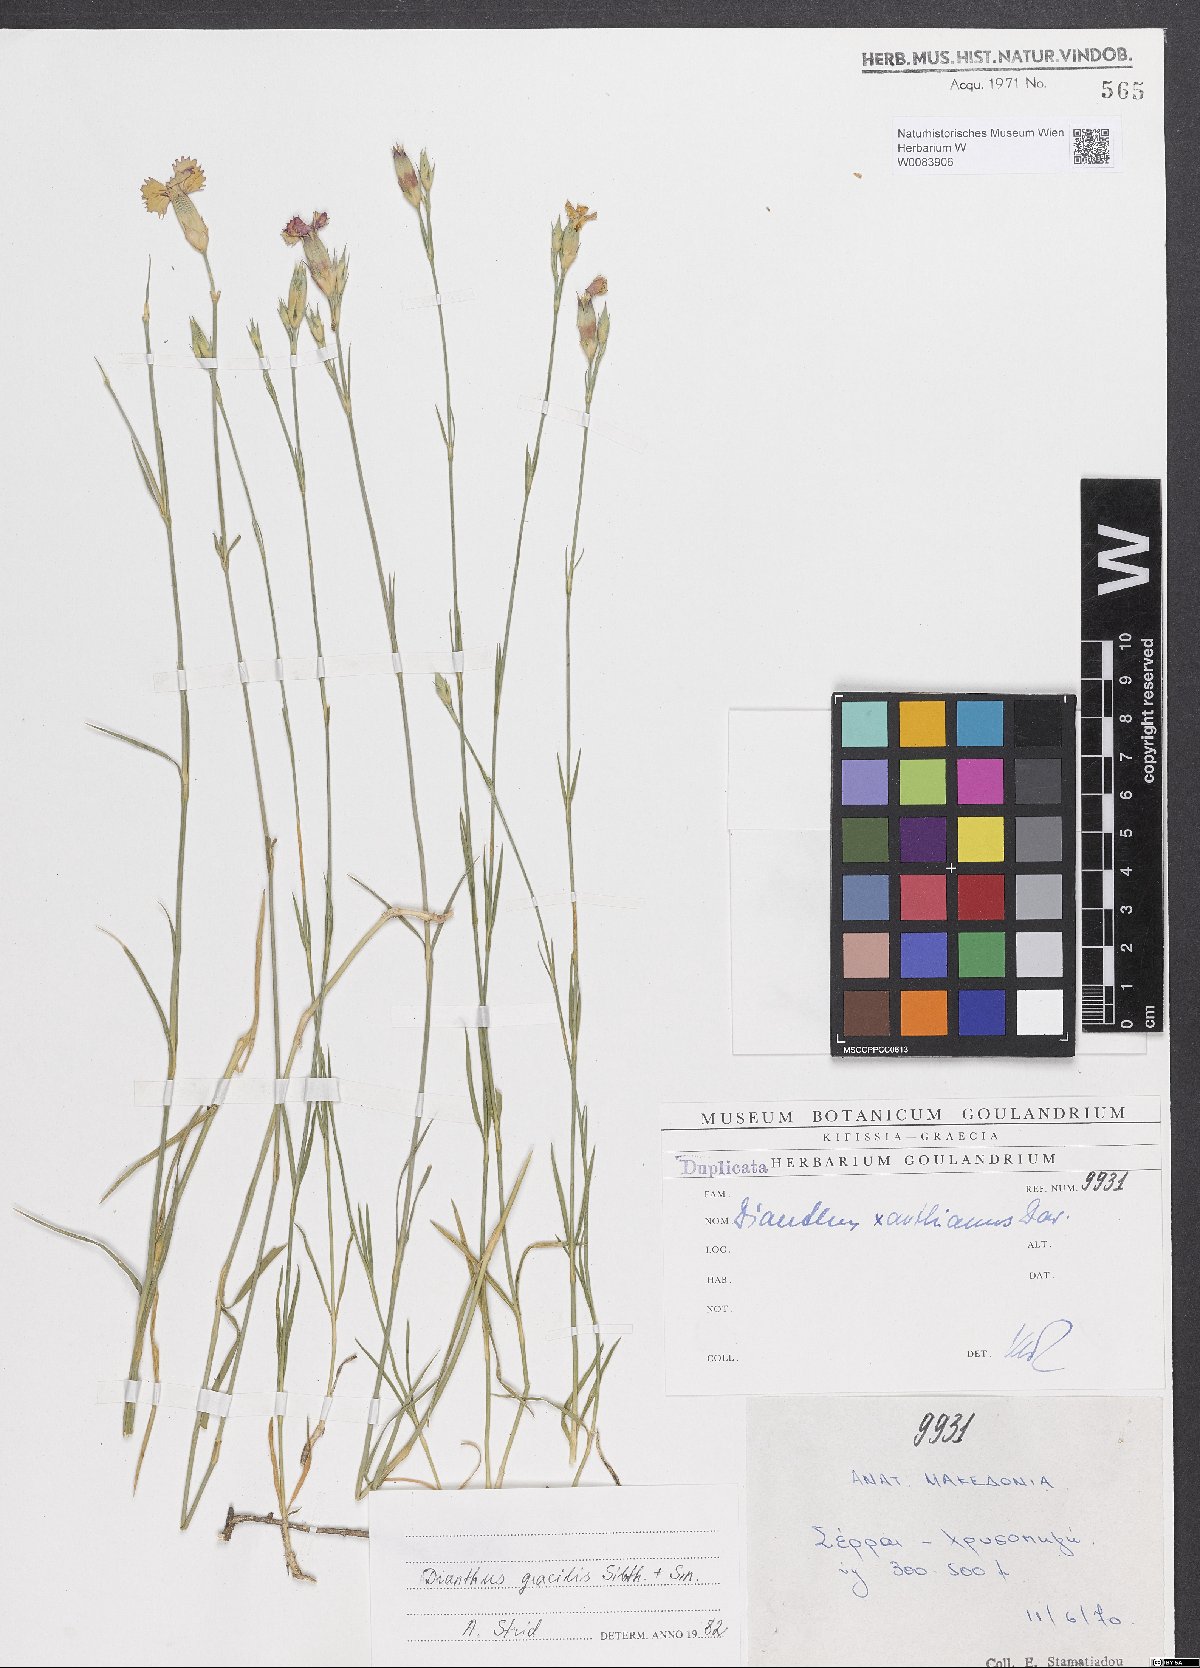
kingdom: Plantae
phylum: Tracheophyta
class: Magnoliopsida
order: Caryophyllales
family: Caryophyllaceae
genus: Dianthus
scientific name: Dianthus gracilis
